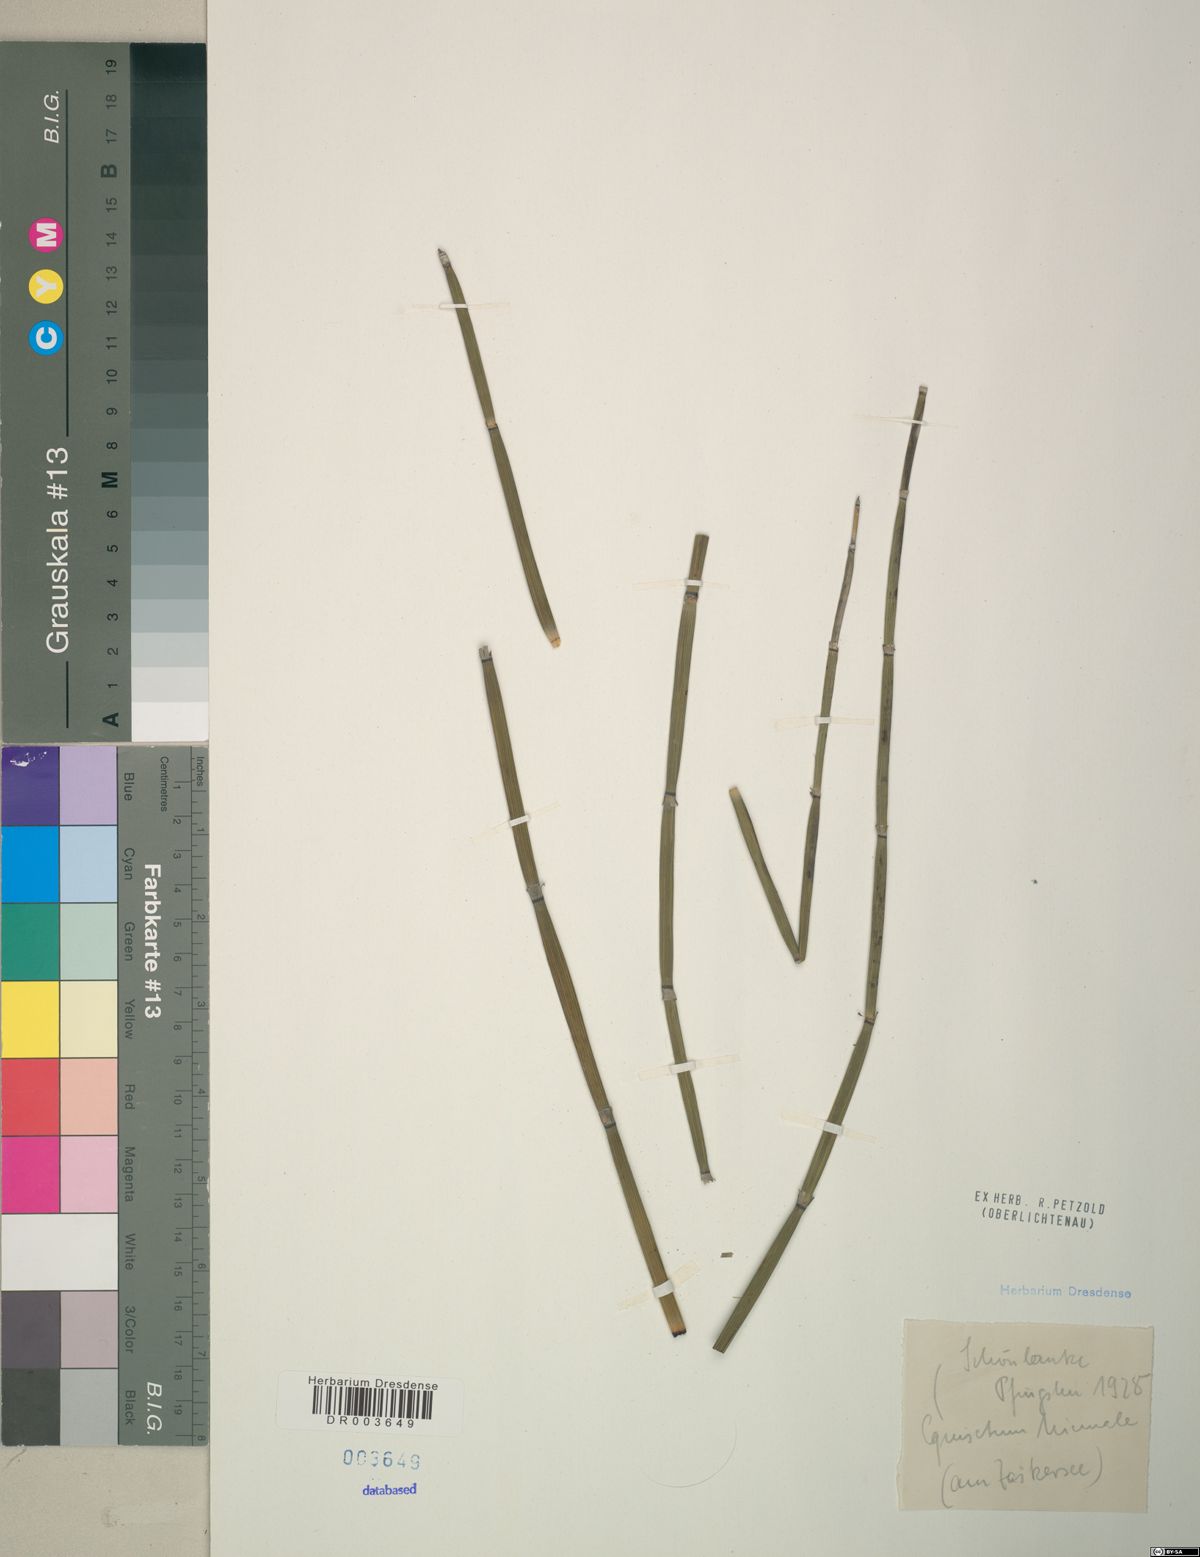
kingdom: Plantae
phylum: Tracheophyta
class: Polypodiopsida
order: Equisetales
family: Equisetaceae
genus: Equisetum
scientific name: Equisetum hyemale
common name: Rough horsetail
